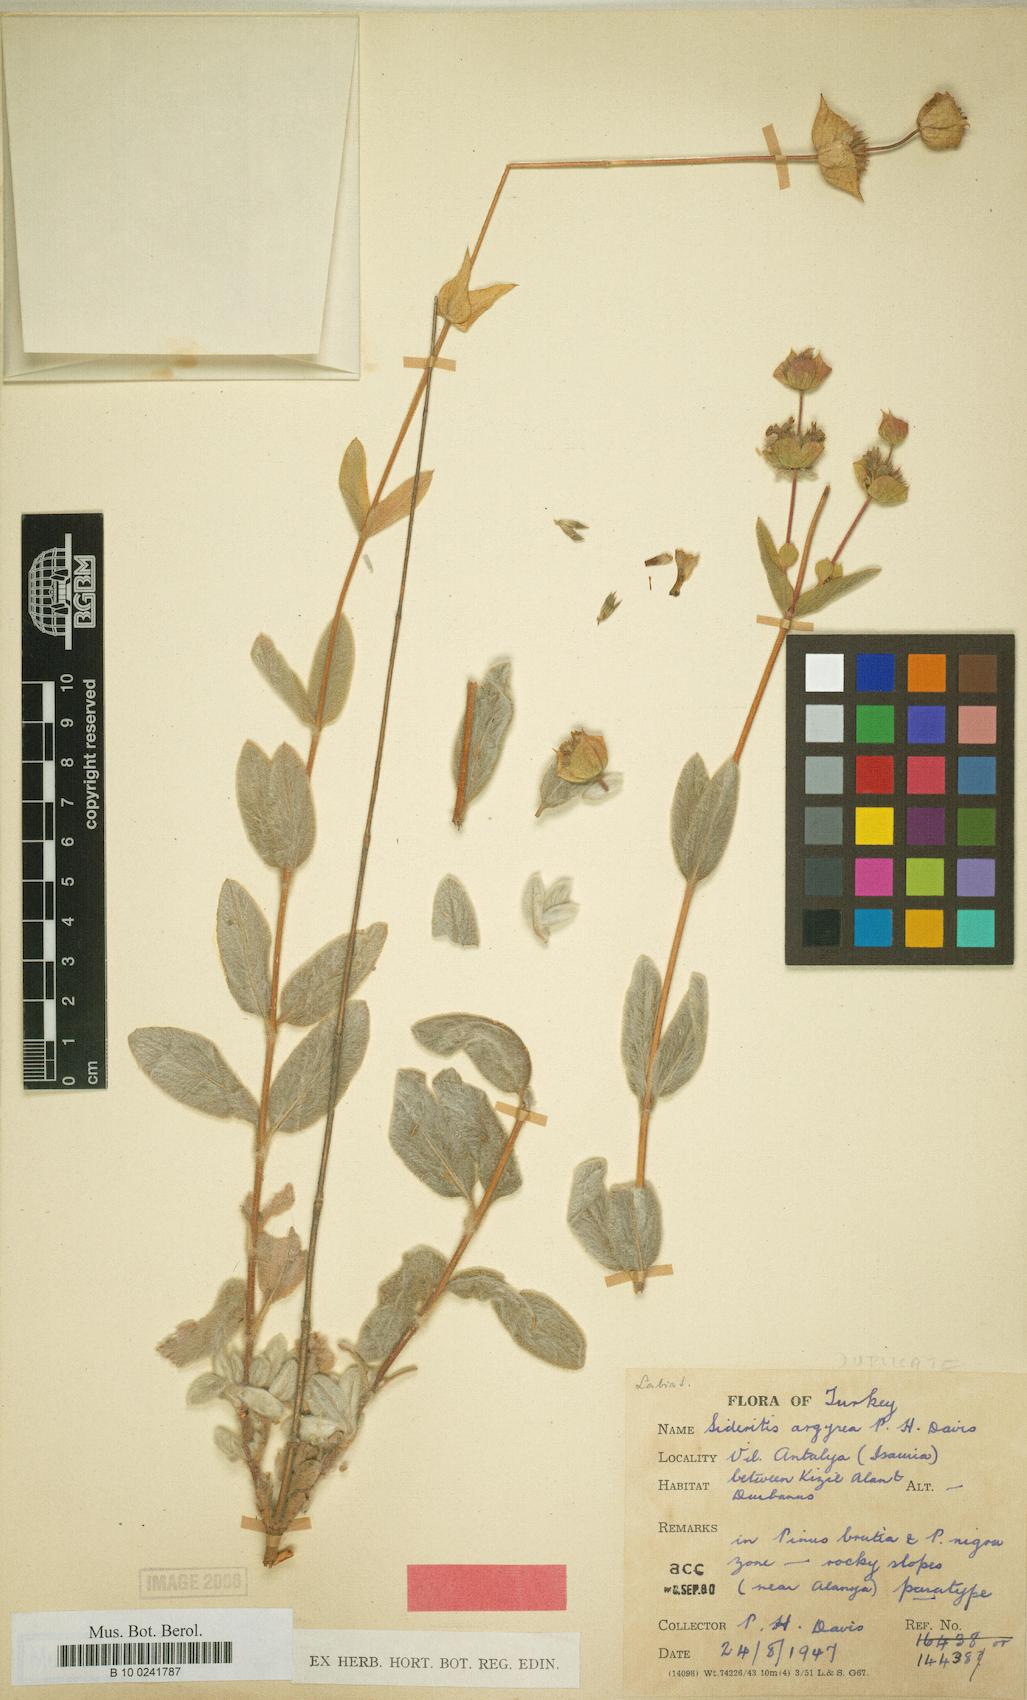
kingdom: Plantae
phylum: Tracheophyta
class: Magnoliopsida
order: Lamiales
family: Lamiaceae
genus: Sideritis
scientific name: Sideritis argyrea
